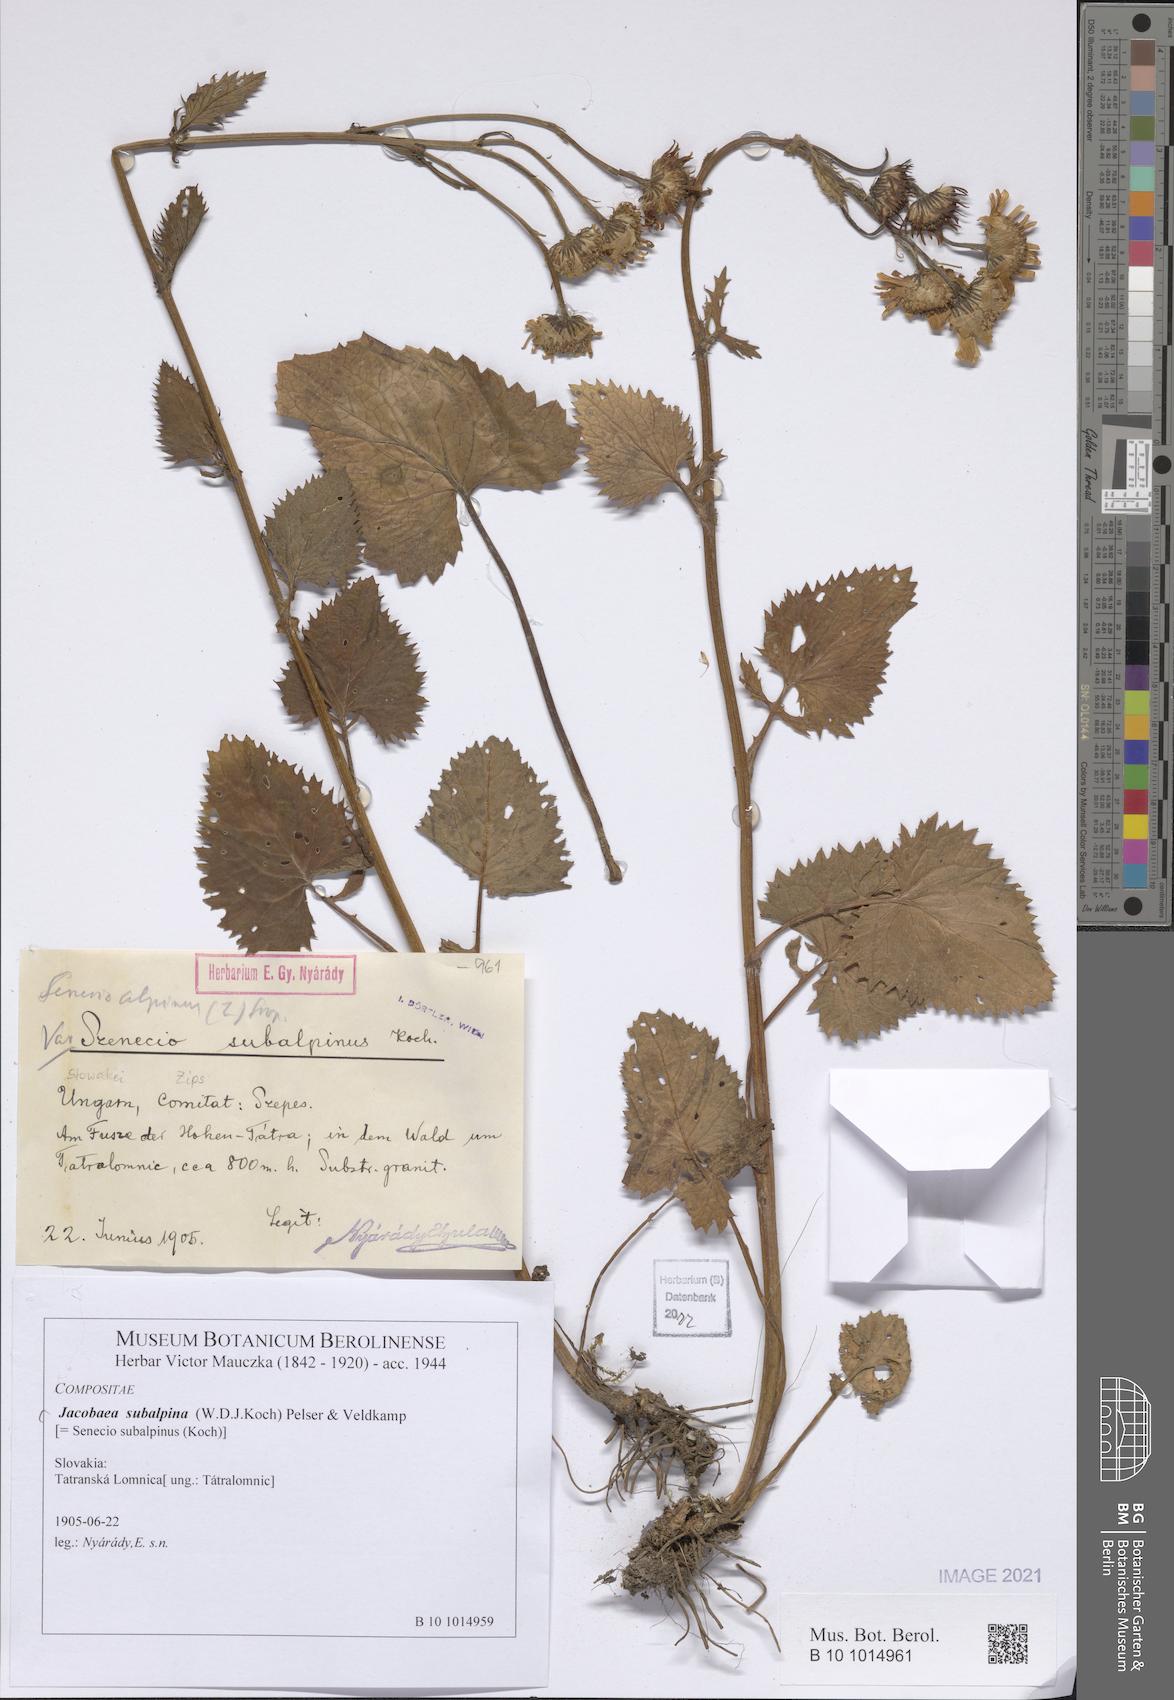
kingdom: Plantae
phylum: Tracheophyta
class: Magnoliopsida
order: Asterales
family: Asteraceae
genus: Jacobaea
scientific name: Jacobaea subalpina
